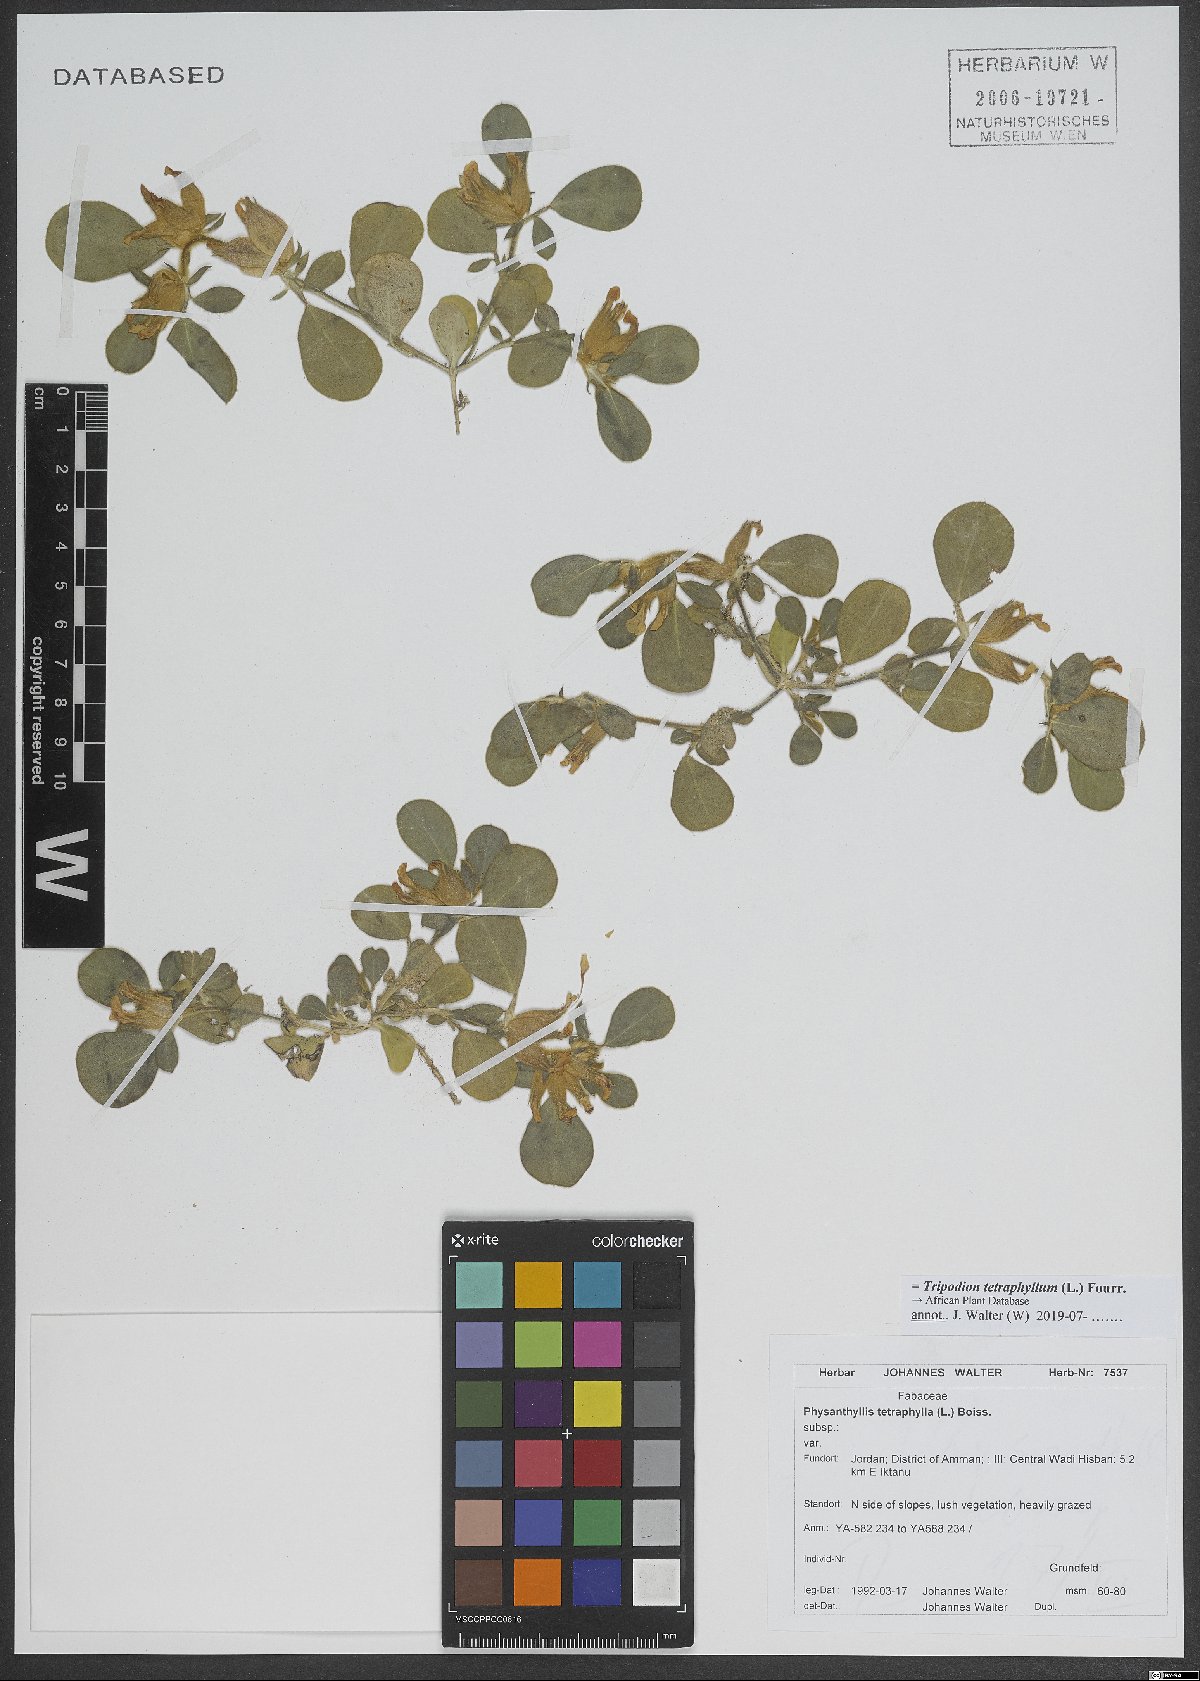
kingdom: Plantae
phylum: Tracheophyta
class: Magnoliopsida
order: Fabales
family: Fabaceae
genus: Tripodion
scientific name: Tripodion tetraphyllum
